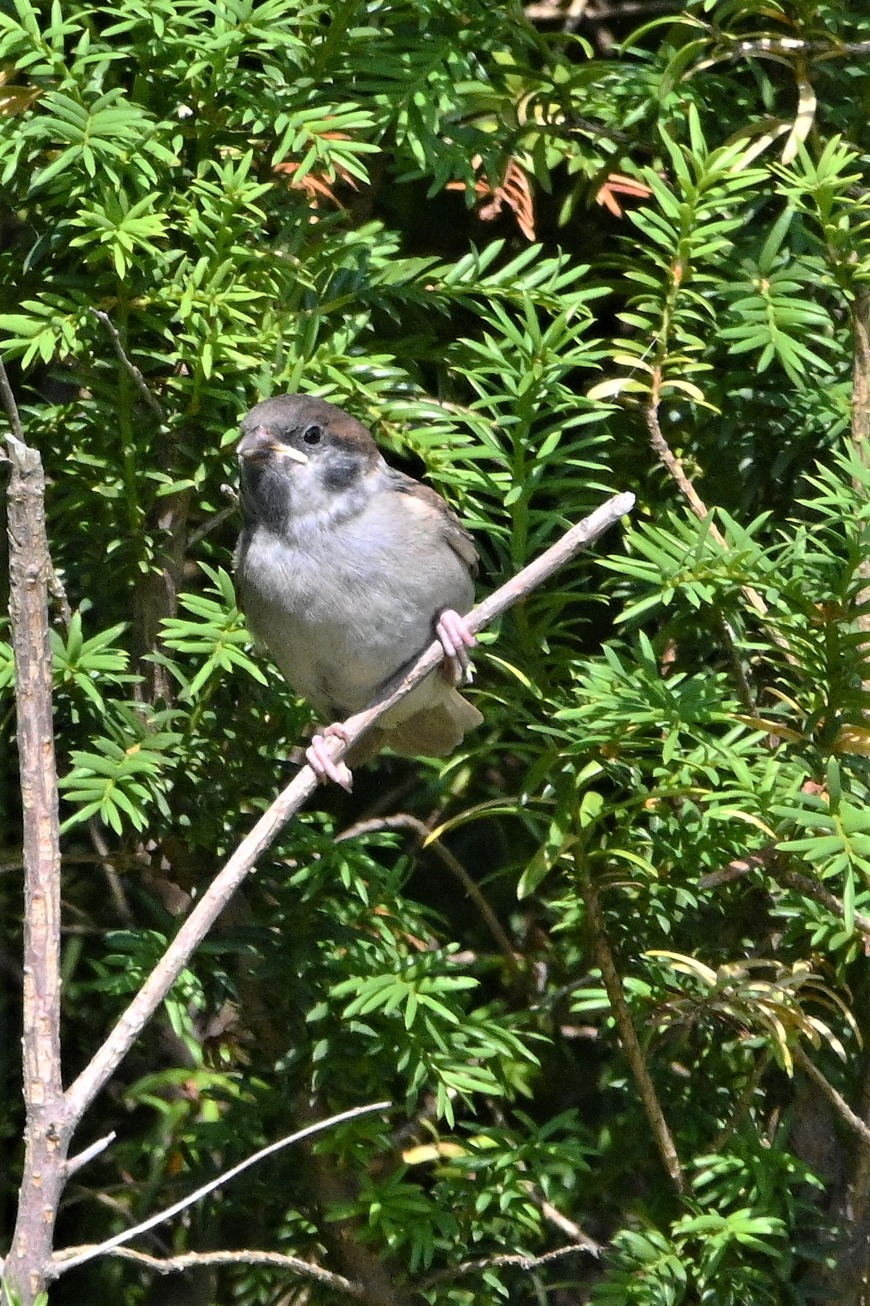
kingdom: Animalia
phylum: Chordata
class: Aves
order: Passeriformes
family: Passeridae
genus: Passer
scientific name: Passer montanus
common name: Skovspurv
